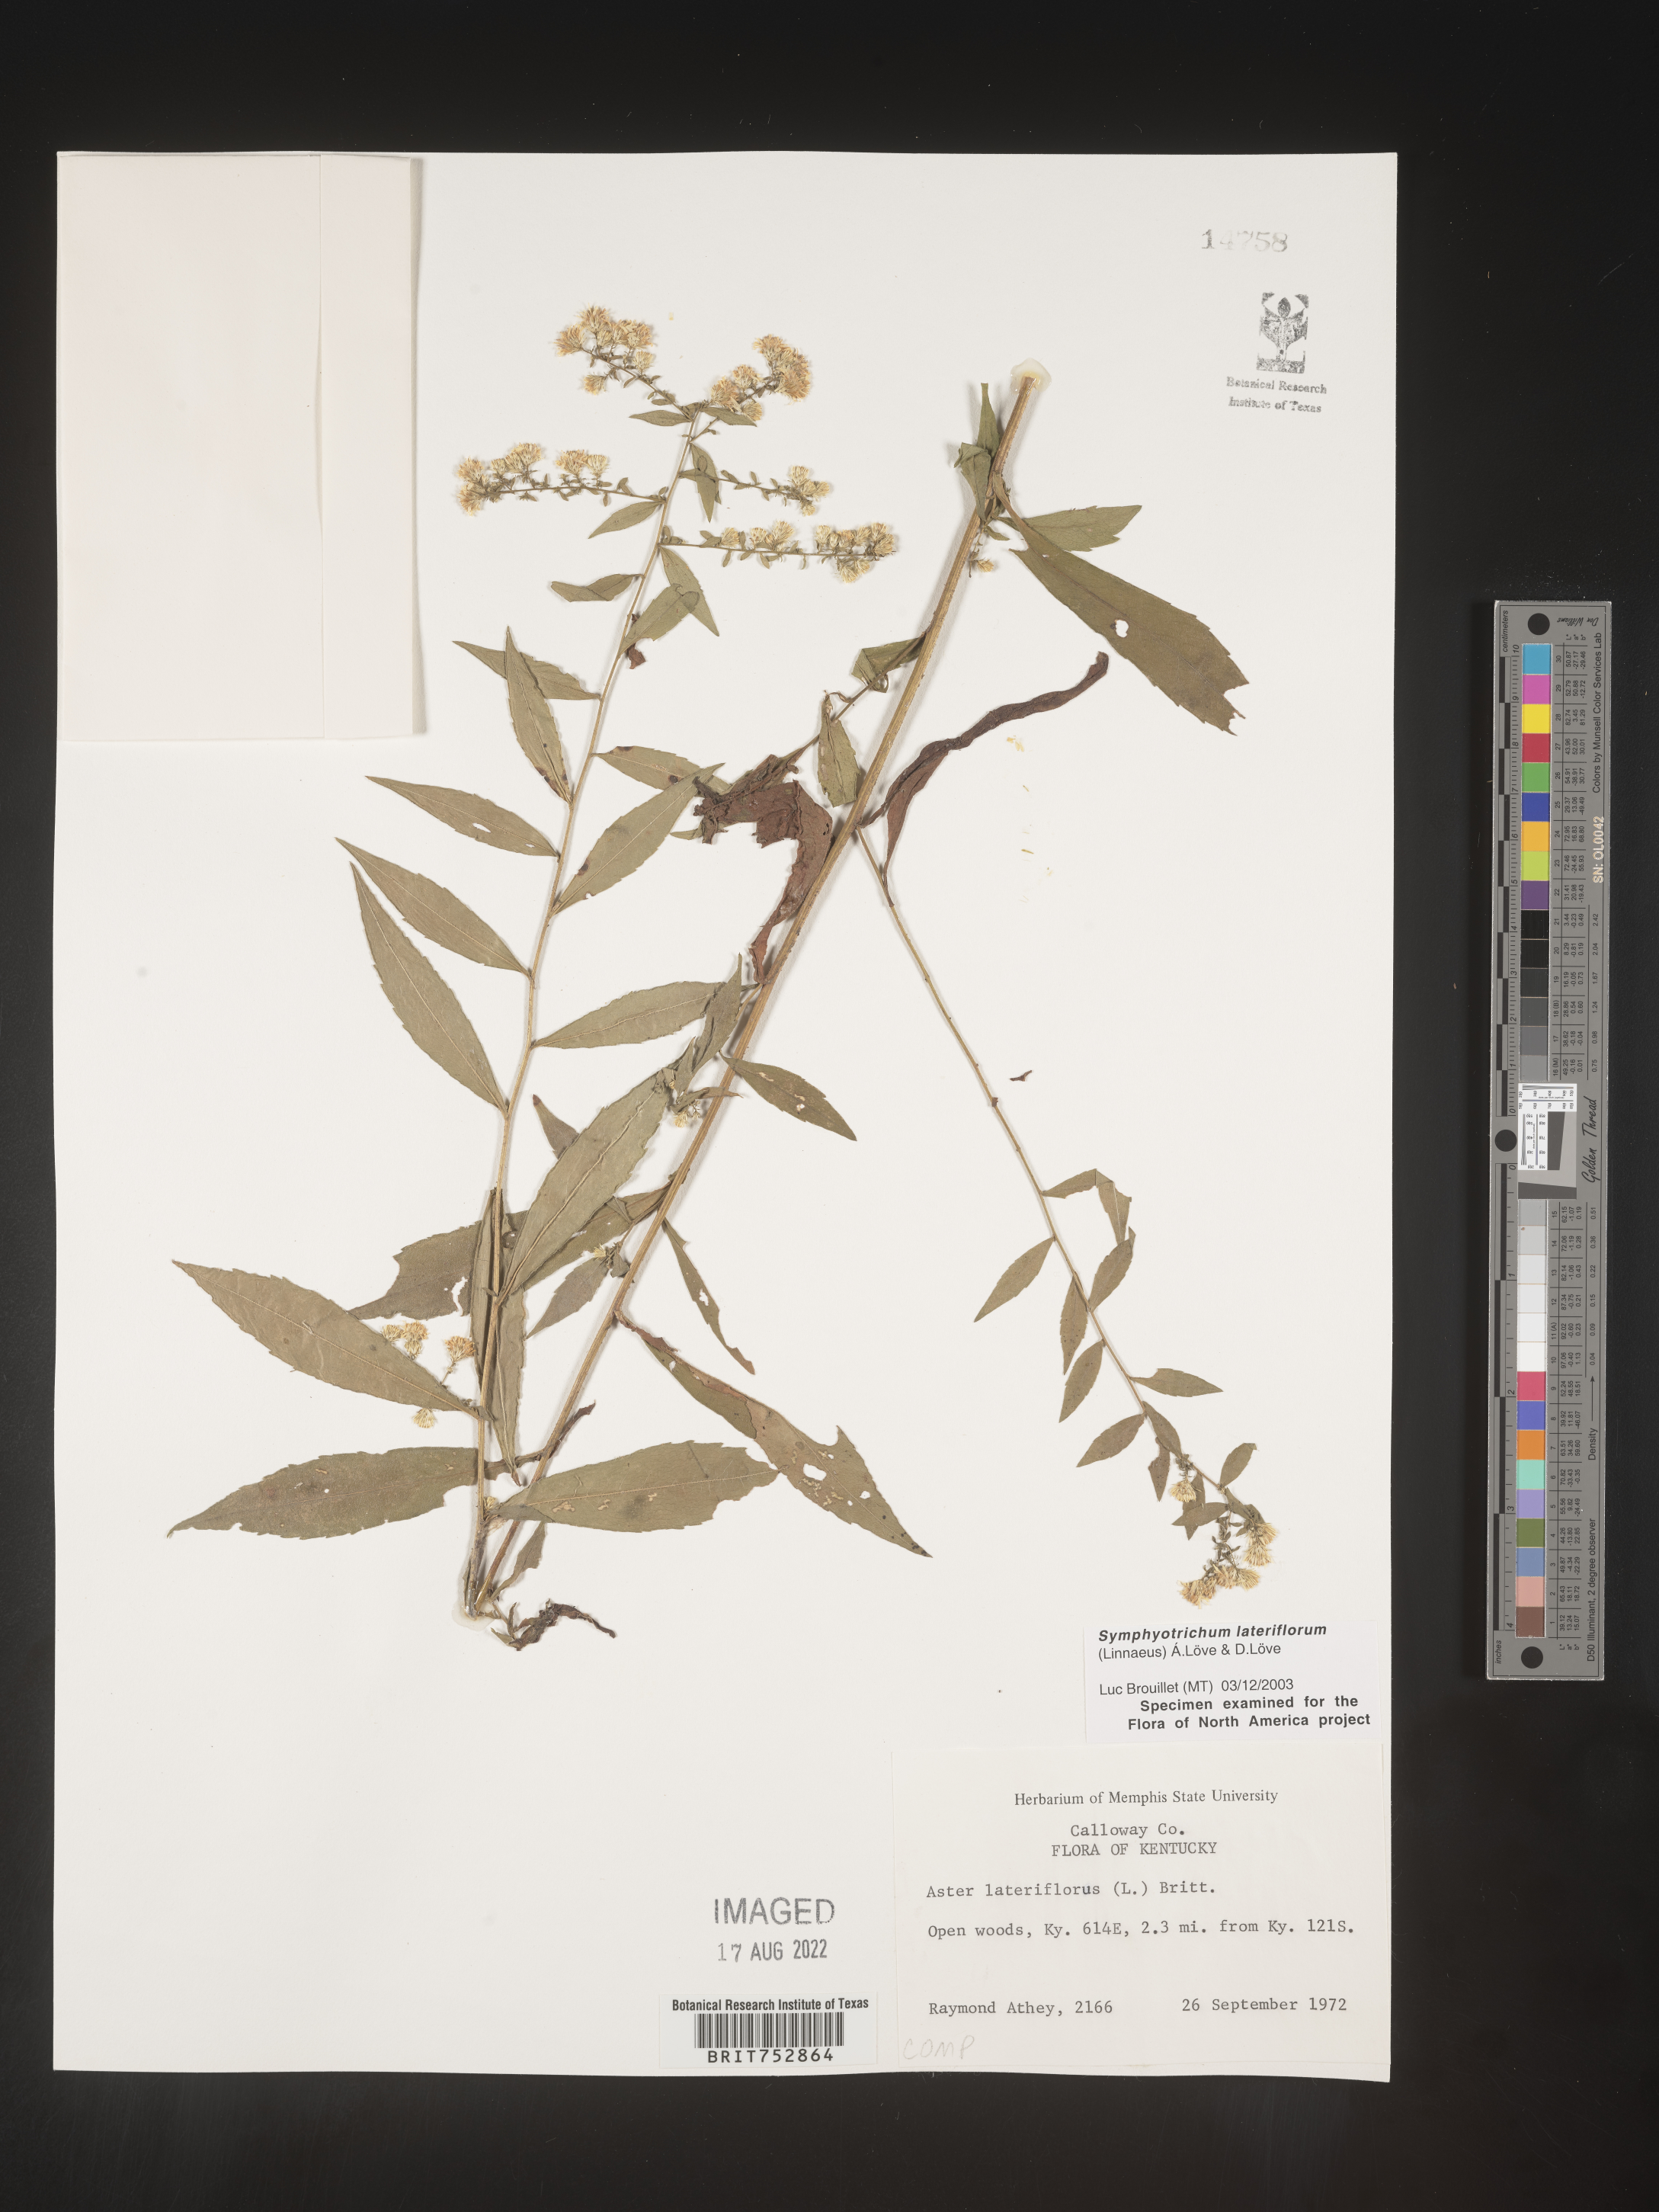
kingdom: Plantae
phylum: Tracheophyta
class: Magnoliopsida
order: Asterales
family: Asteraceae
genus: Symphyotrichum
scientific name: Symphyotrichum lateriflorum
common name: Calico aster
